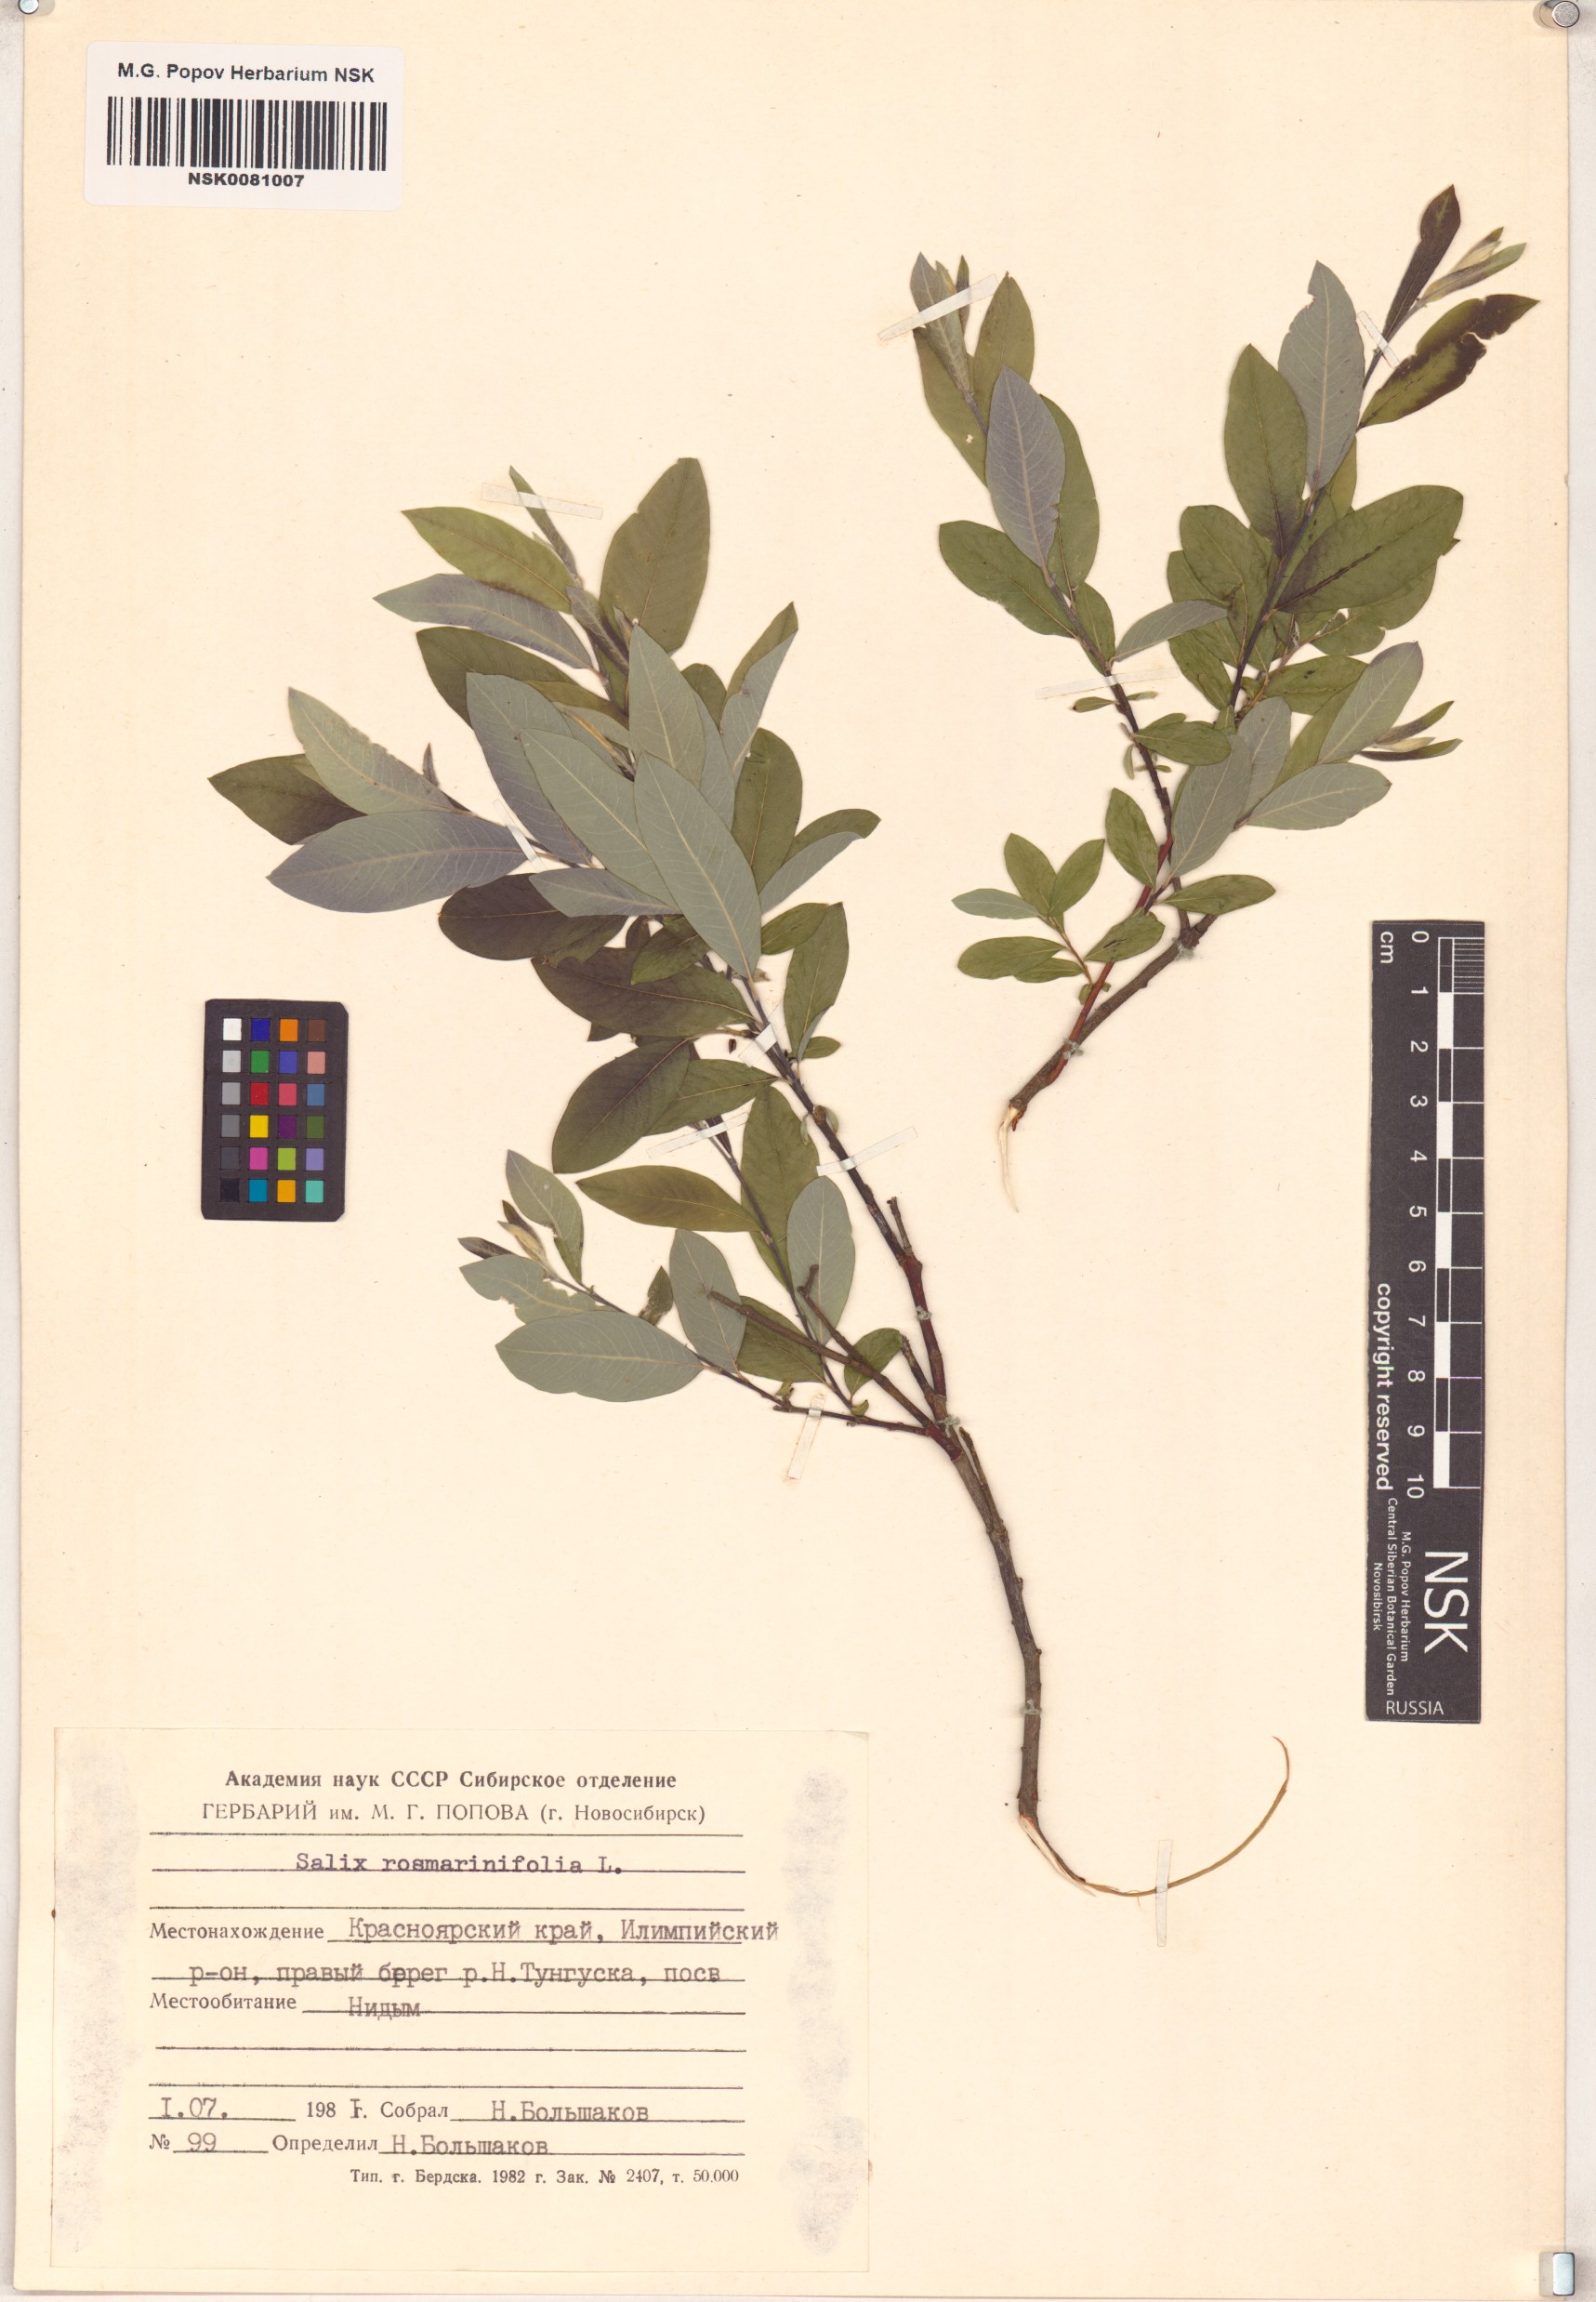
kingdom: Plantae
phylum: Tracheophyta
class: Magnoliopsida
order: Malpighiales
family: Salicaceae
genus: Salix
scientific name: Salix rosmarinifolia
